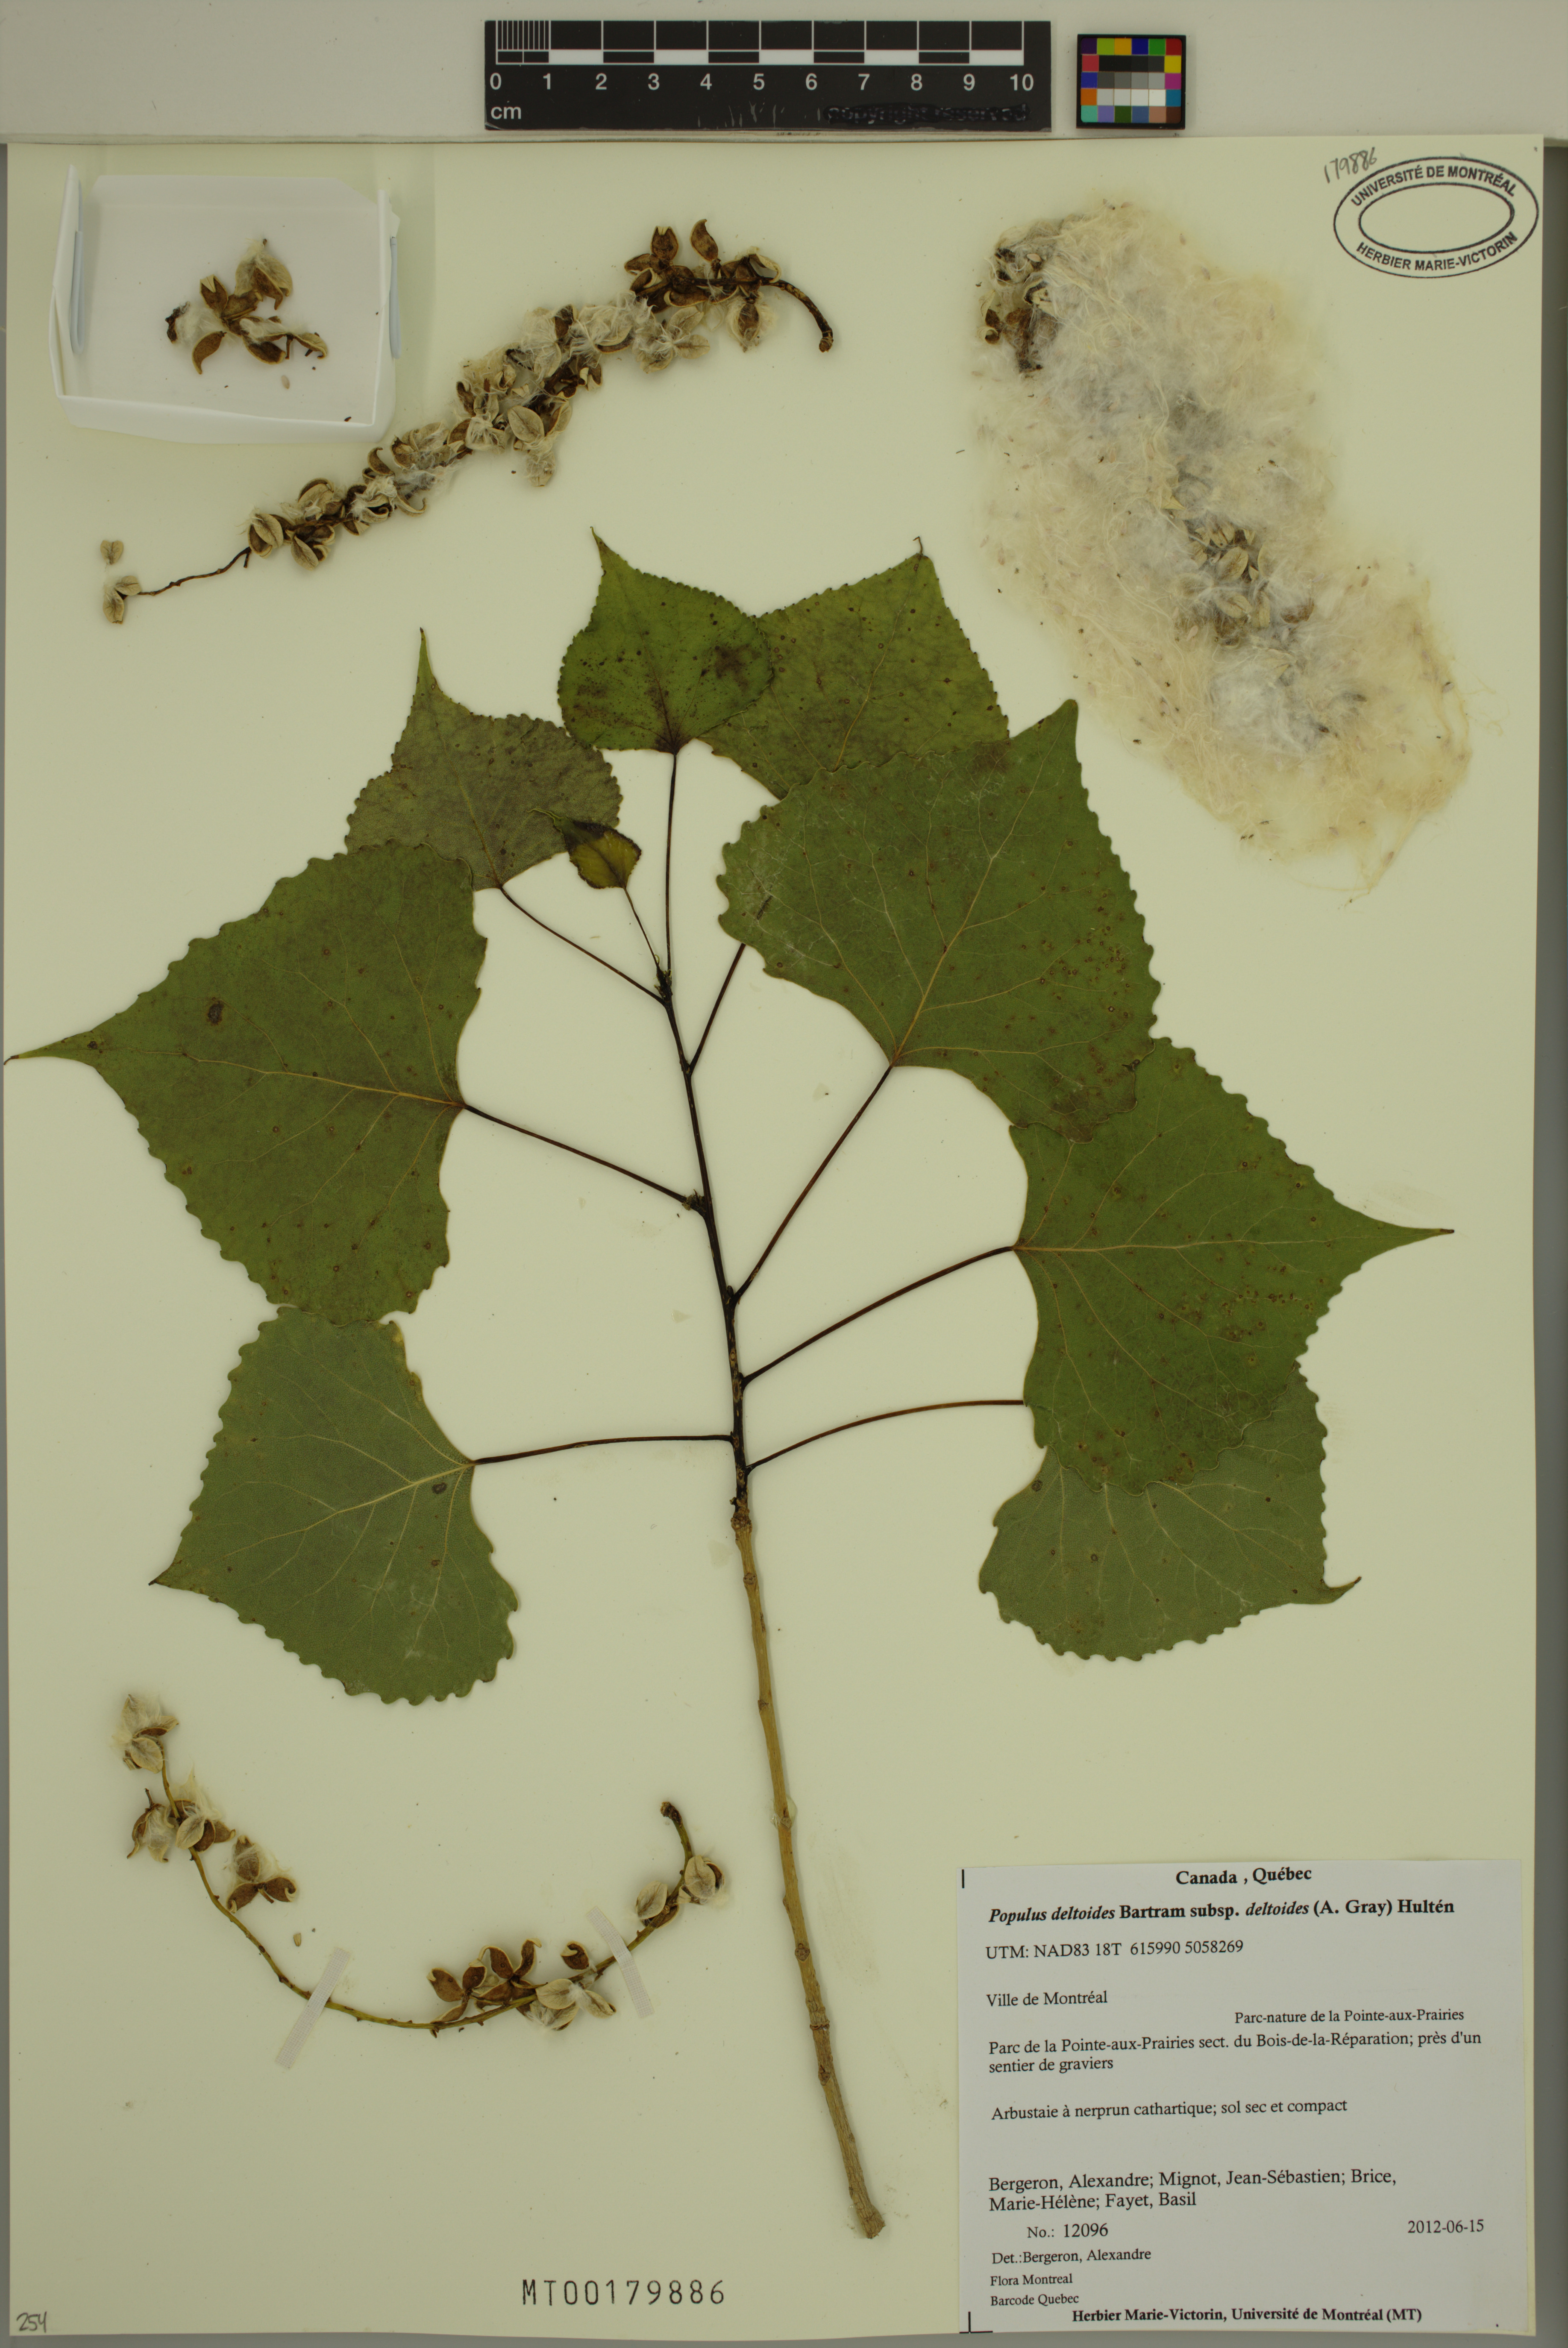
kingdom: Plantae
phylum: Tracheophyta
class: Magnoliopsida
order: Malpighiales
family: Salicaceae
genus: Populus
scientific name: Populus deltoides
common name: Eastern cottonwood
